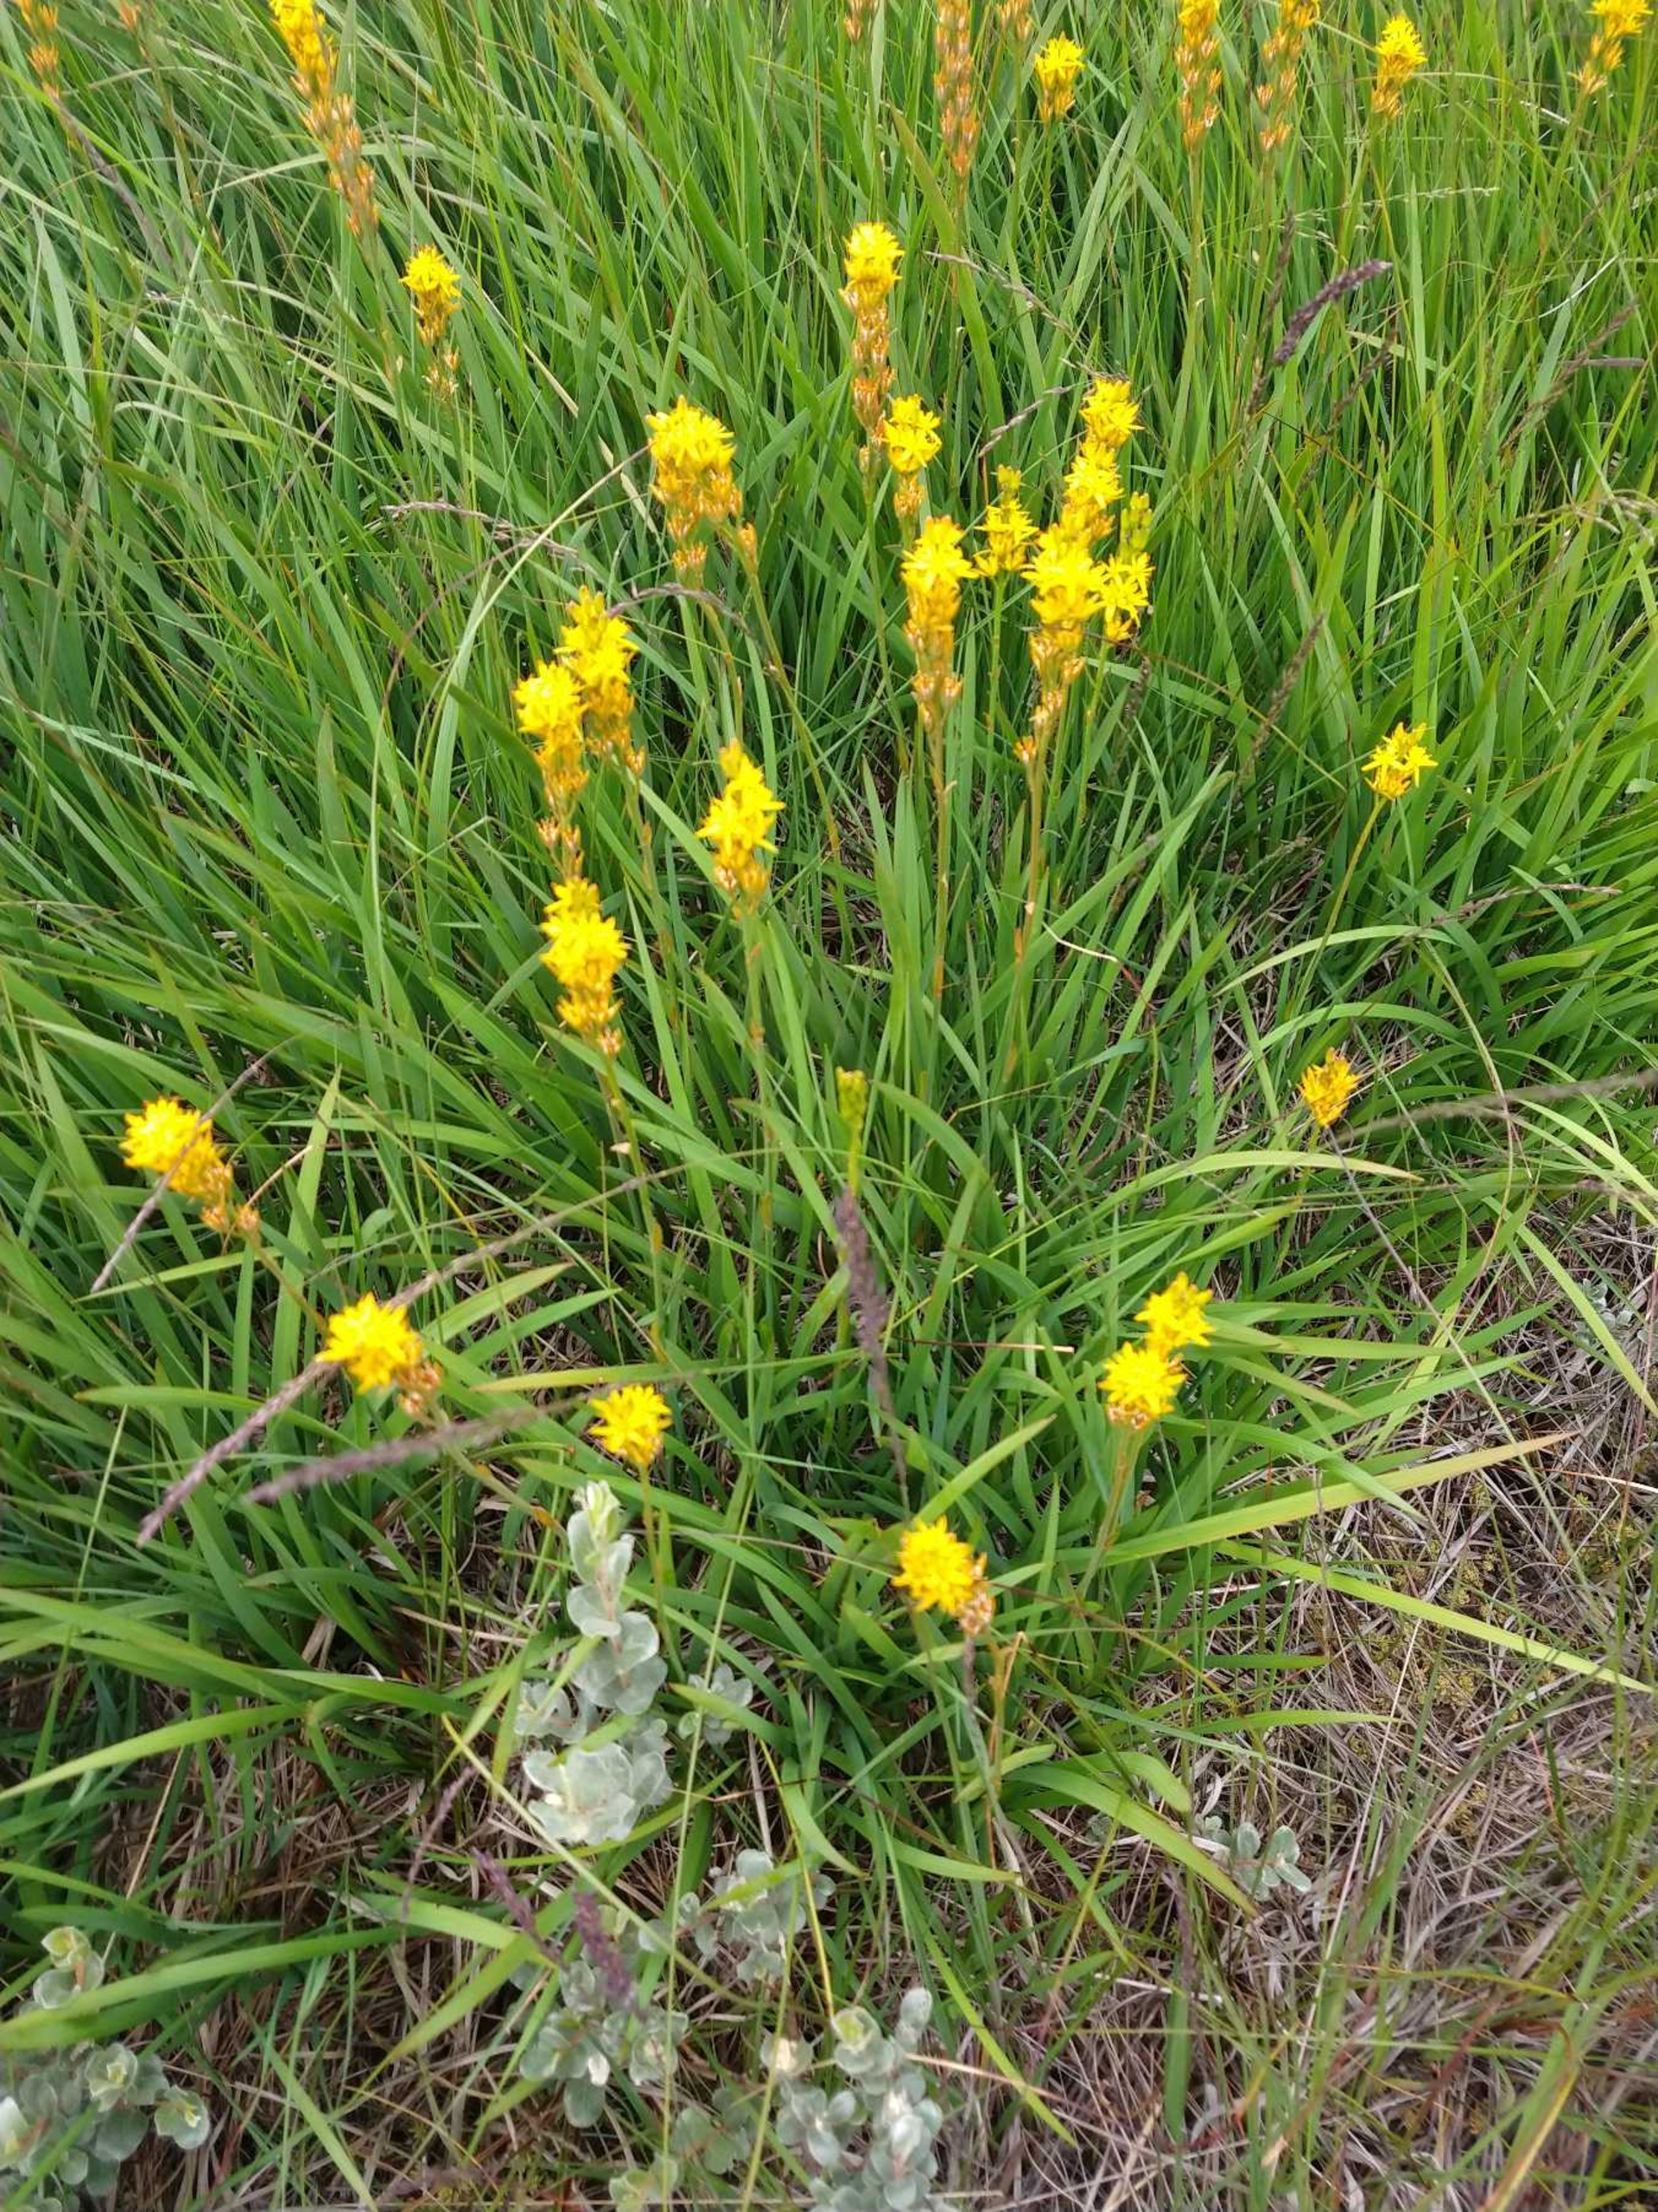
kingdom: Plantae
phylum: Tracheophyta
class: Liliopsida
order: Dioscoreales
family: Nartheciaceae
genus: Narthecium
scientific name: Narthecium ossifragum
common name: Benbræk
